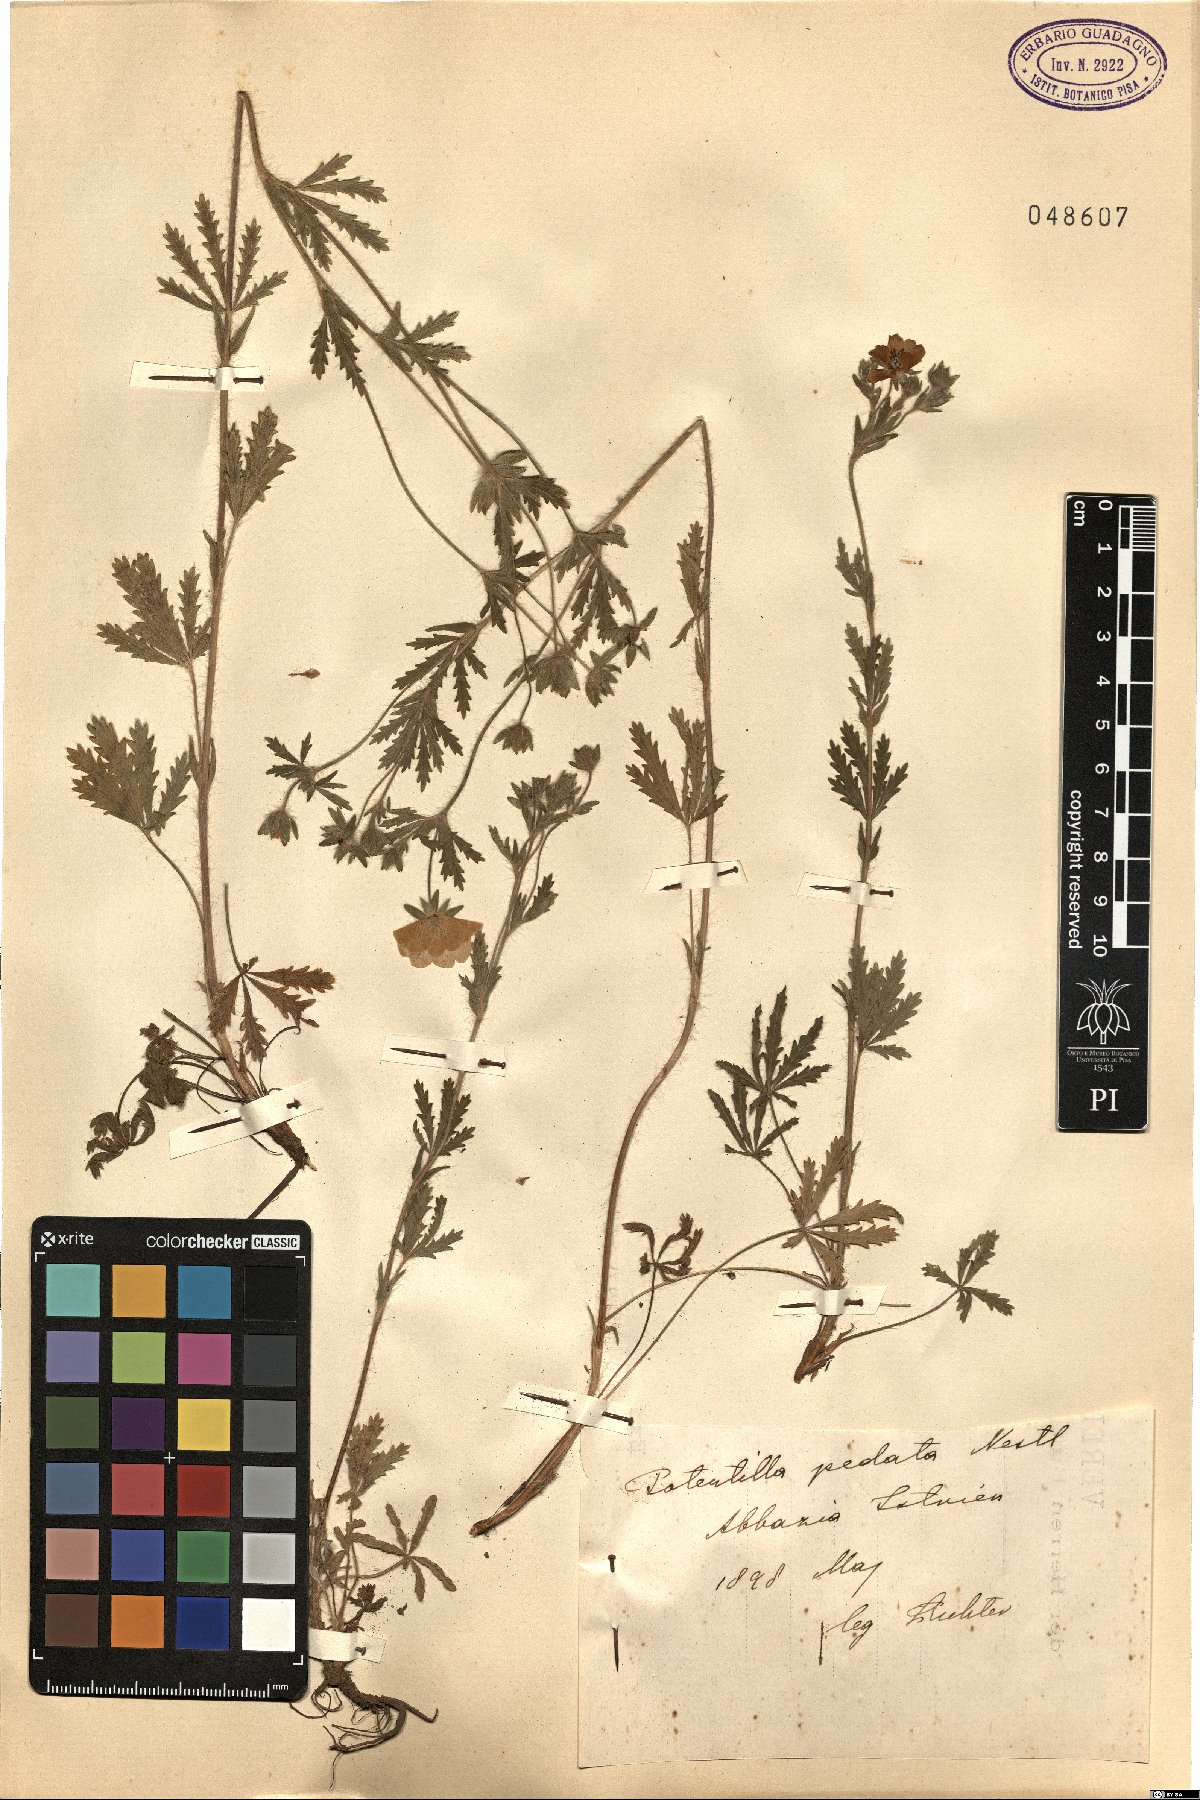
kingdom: Plantae
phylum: Tracheophyta
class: Magnoliopsida
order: Rosales
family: Rosaceae
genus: Potentilla
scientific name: Potentilla pedata
